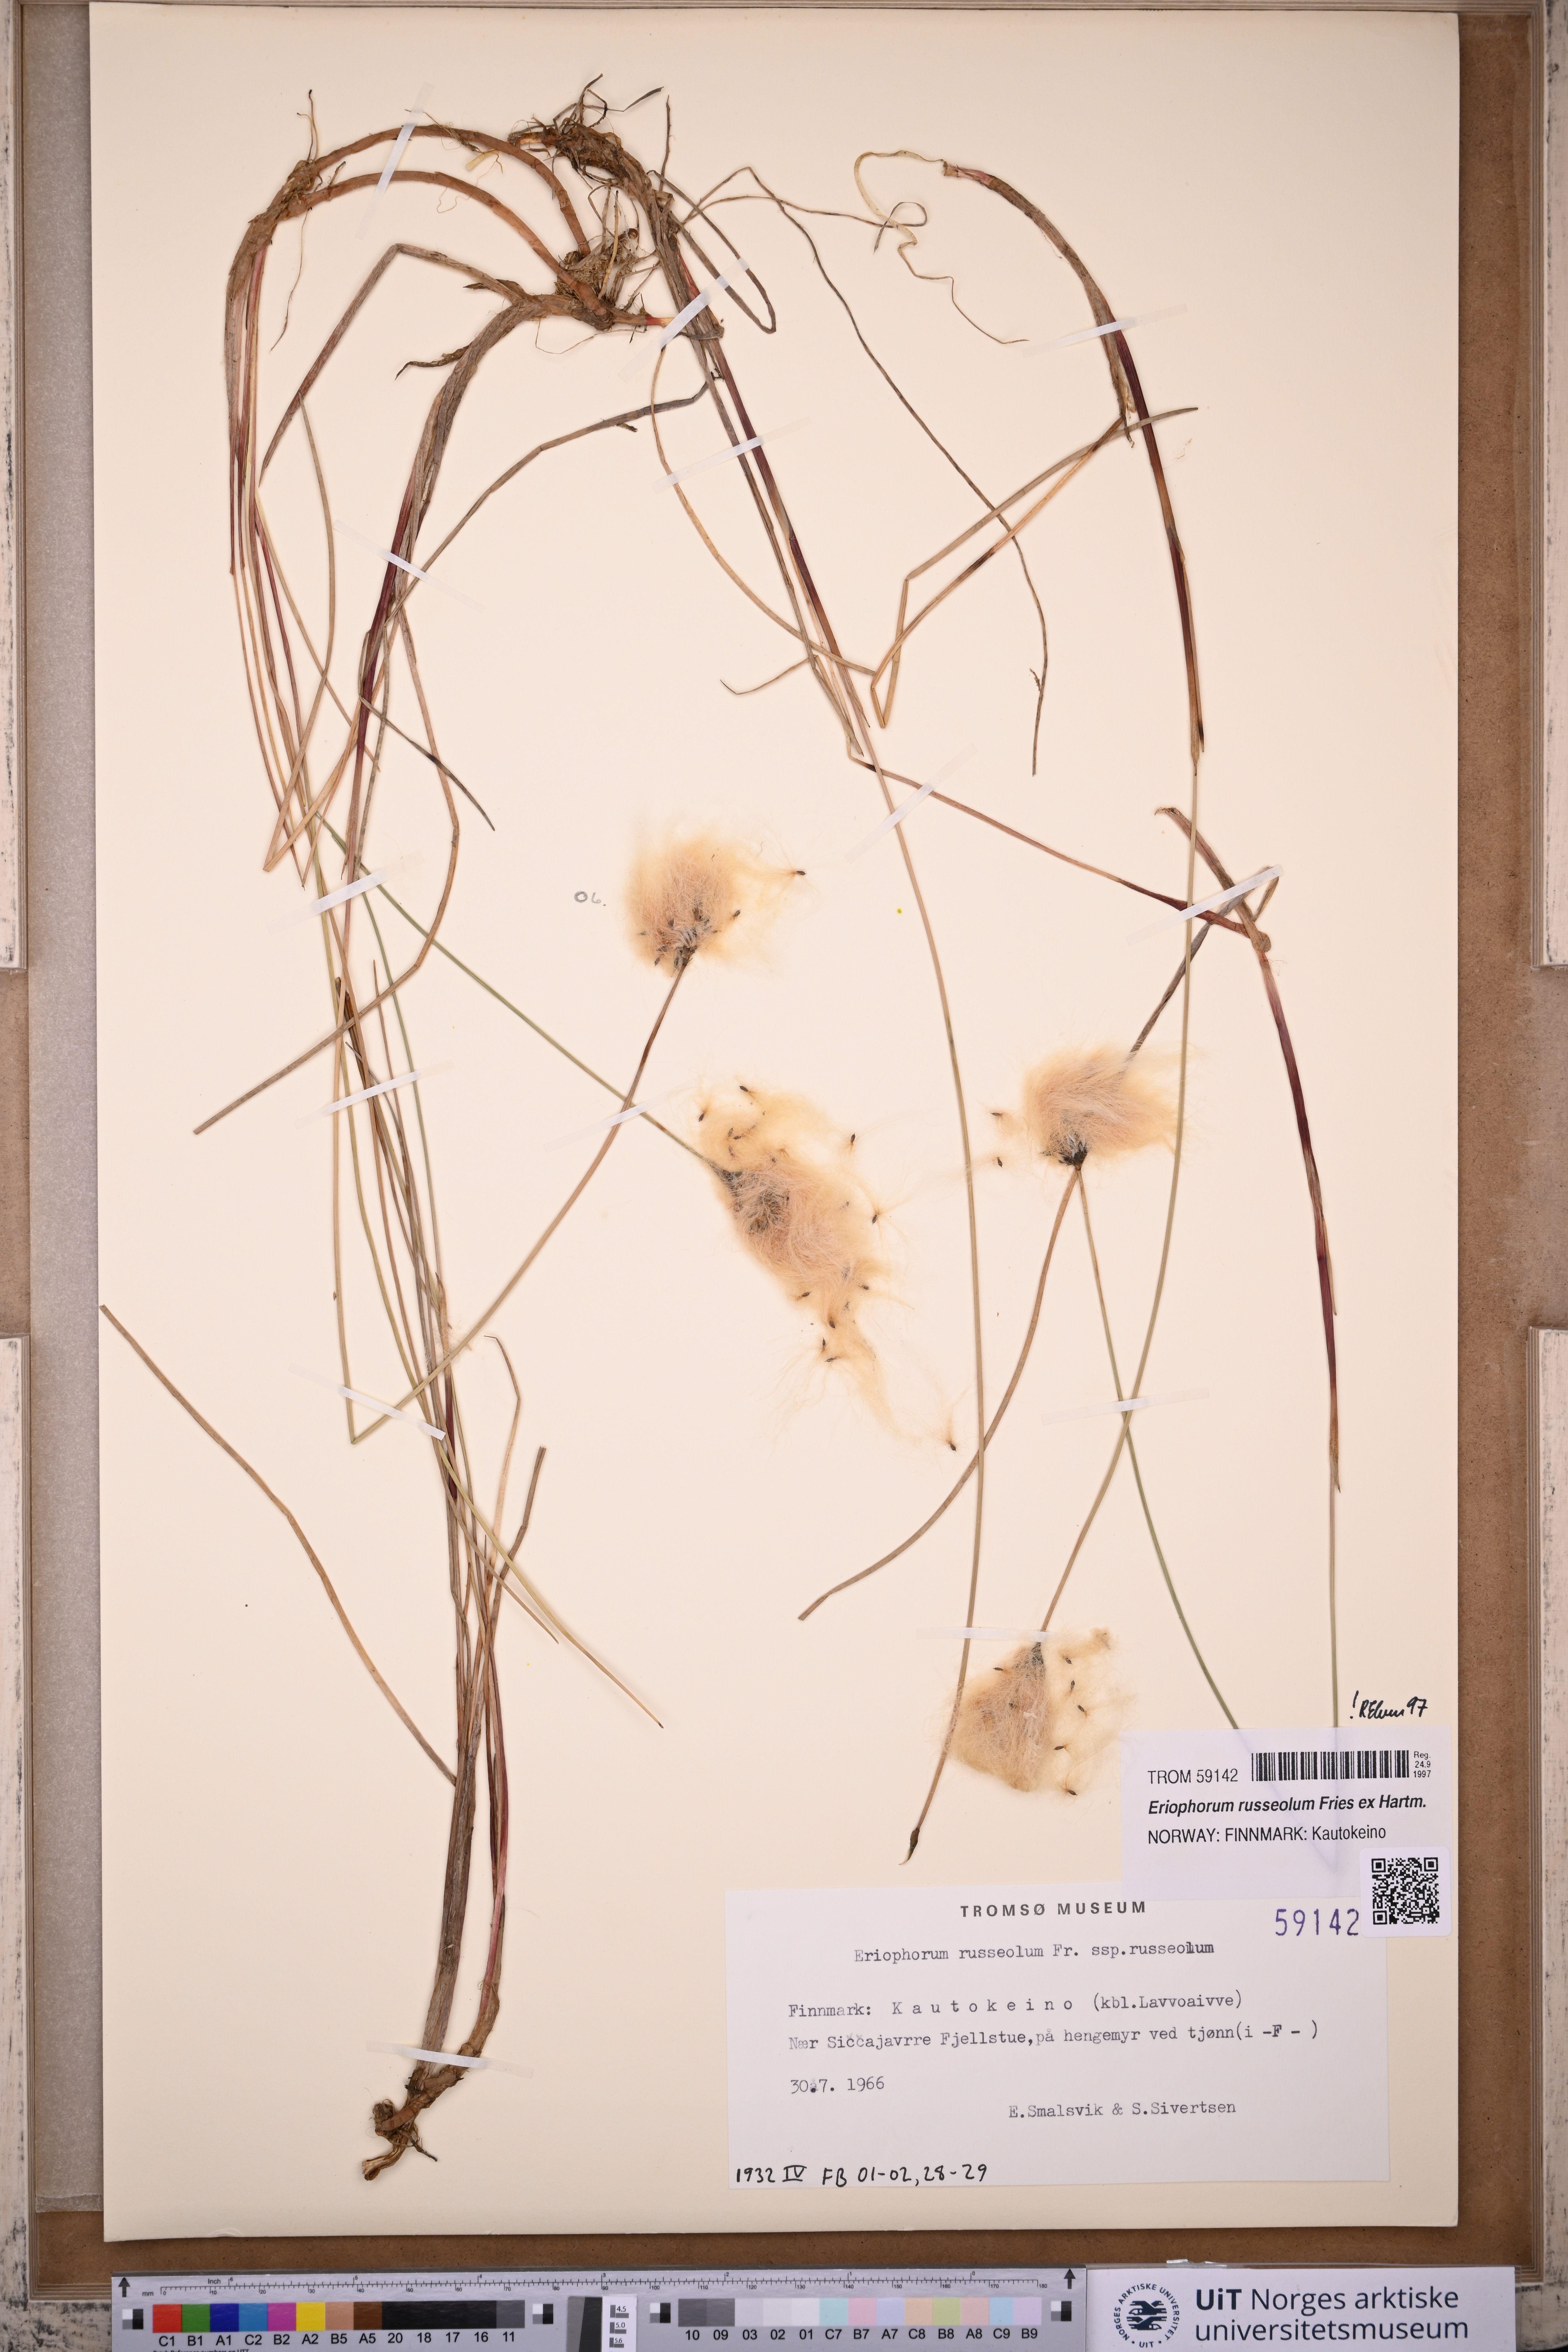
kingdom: Plantae
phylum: Tracheophyta
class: Liliopsida
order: Poales
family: Cyperaceae
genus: Eriophorum
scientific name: Eriophorum russeolum
